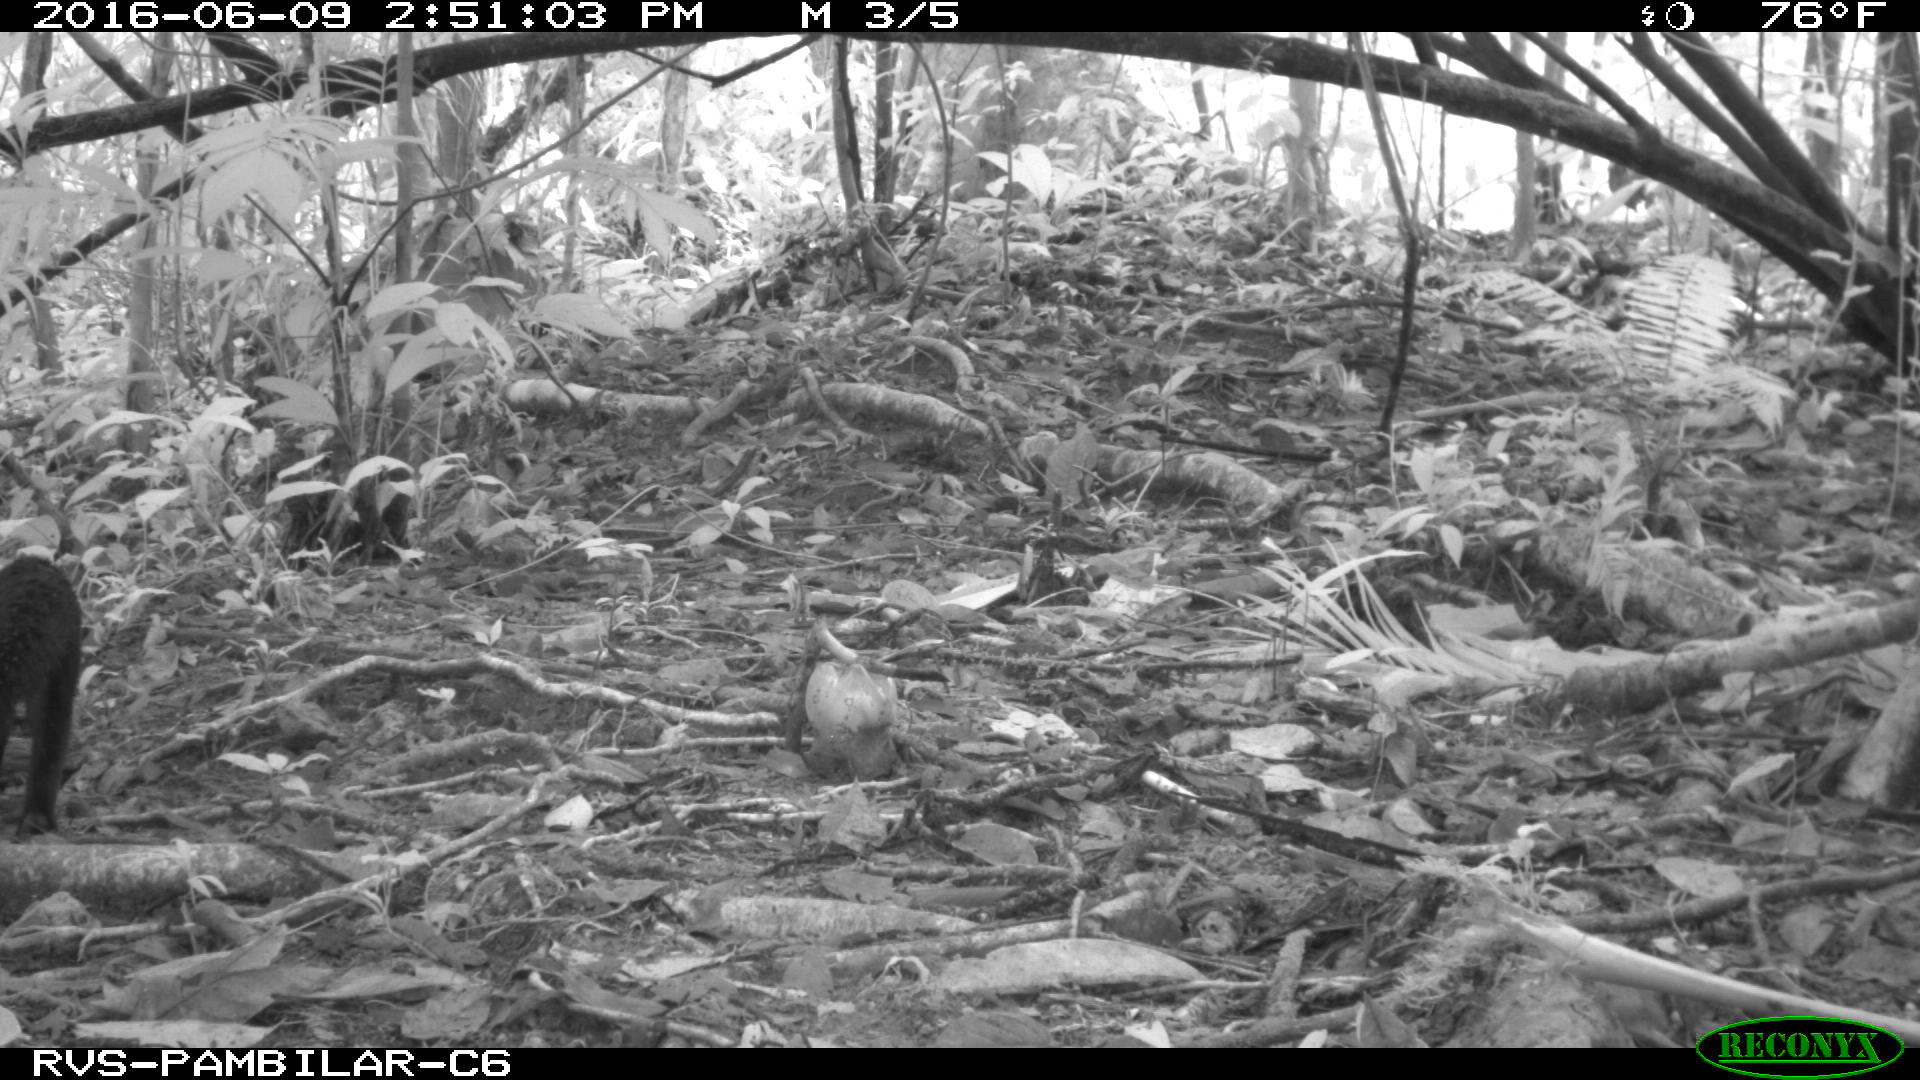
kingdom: Animalia
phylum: Chordata
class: Mammalia
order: Carnivora
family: Mustelidae
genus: Eira
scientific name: Eira barbara
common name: Tayra
